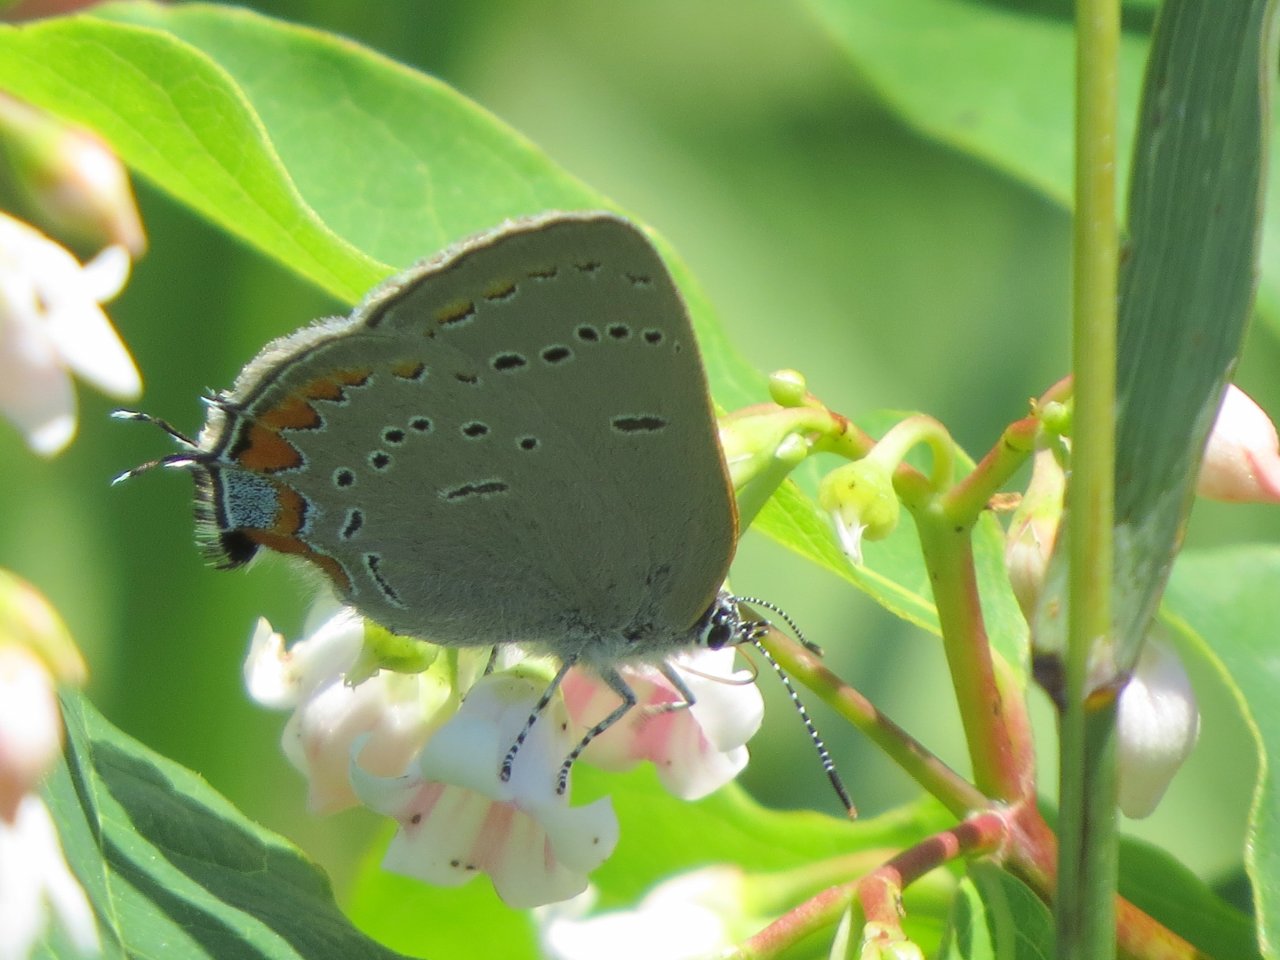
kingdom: Animalia
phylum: Arthropoda
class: Insecta
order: Lepidoptera
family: Lycaenidae
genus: Strymon
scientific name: Strymon acadica
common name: Acadian Hairstreak
